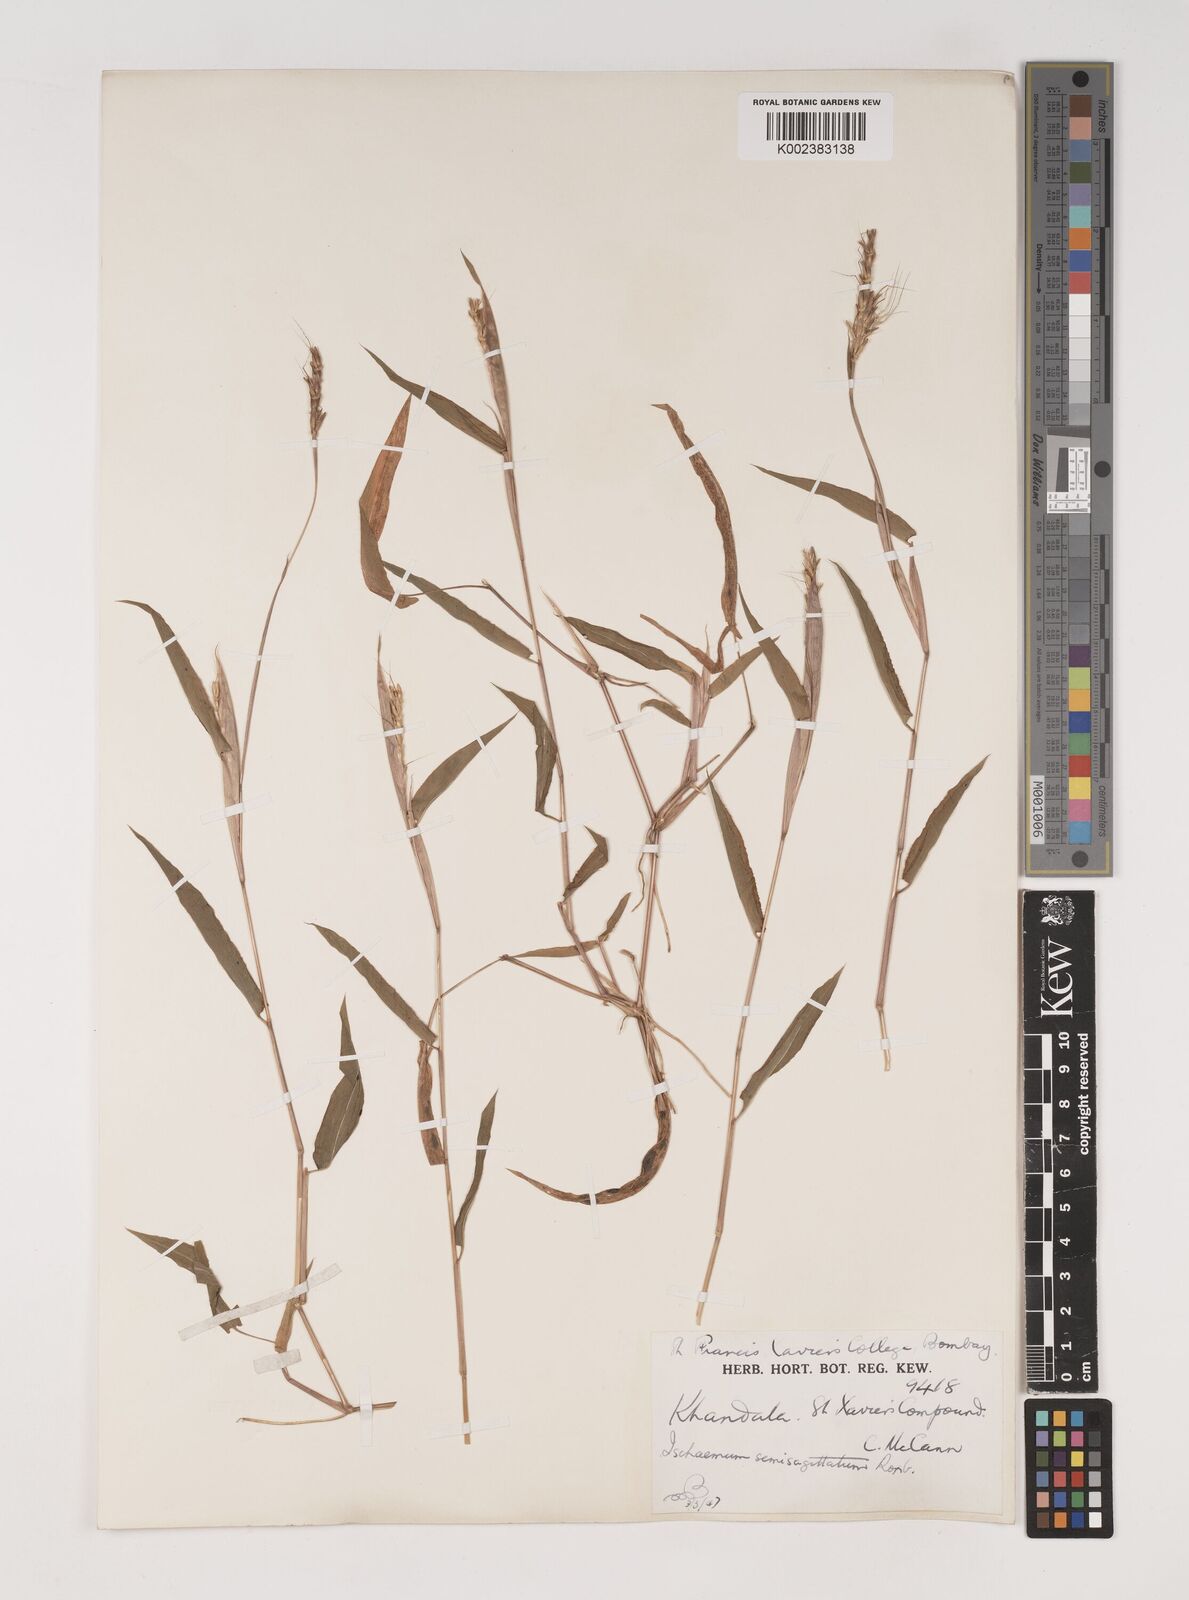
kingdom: Plantae
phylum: Tracheophyta
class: Liliopsida
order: Poales
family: Poaceae
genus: Ischaemum
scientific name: Ischaemum semisagittatum
